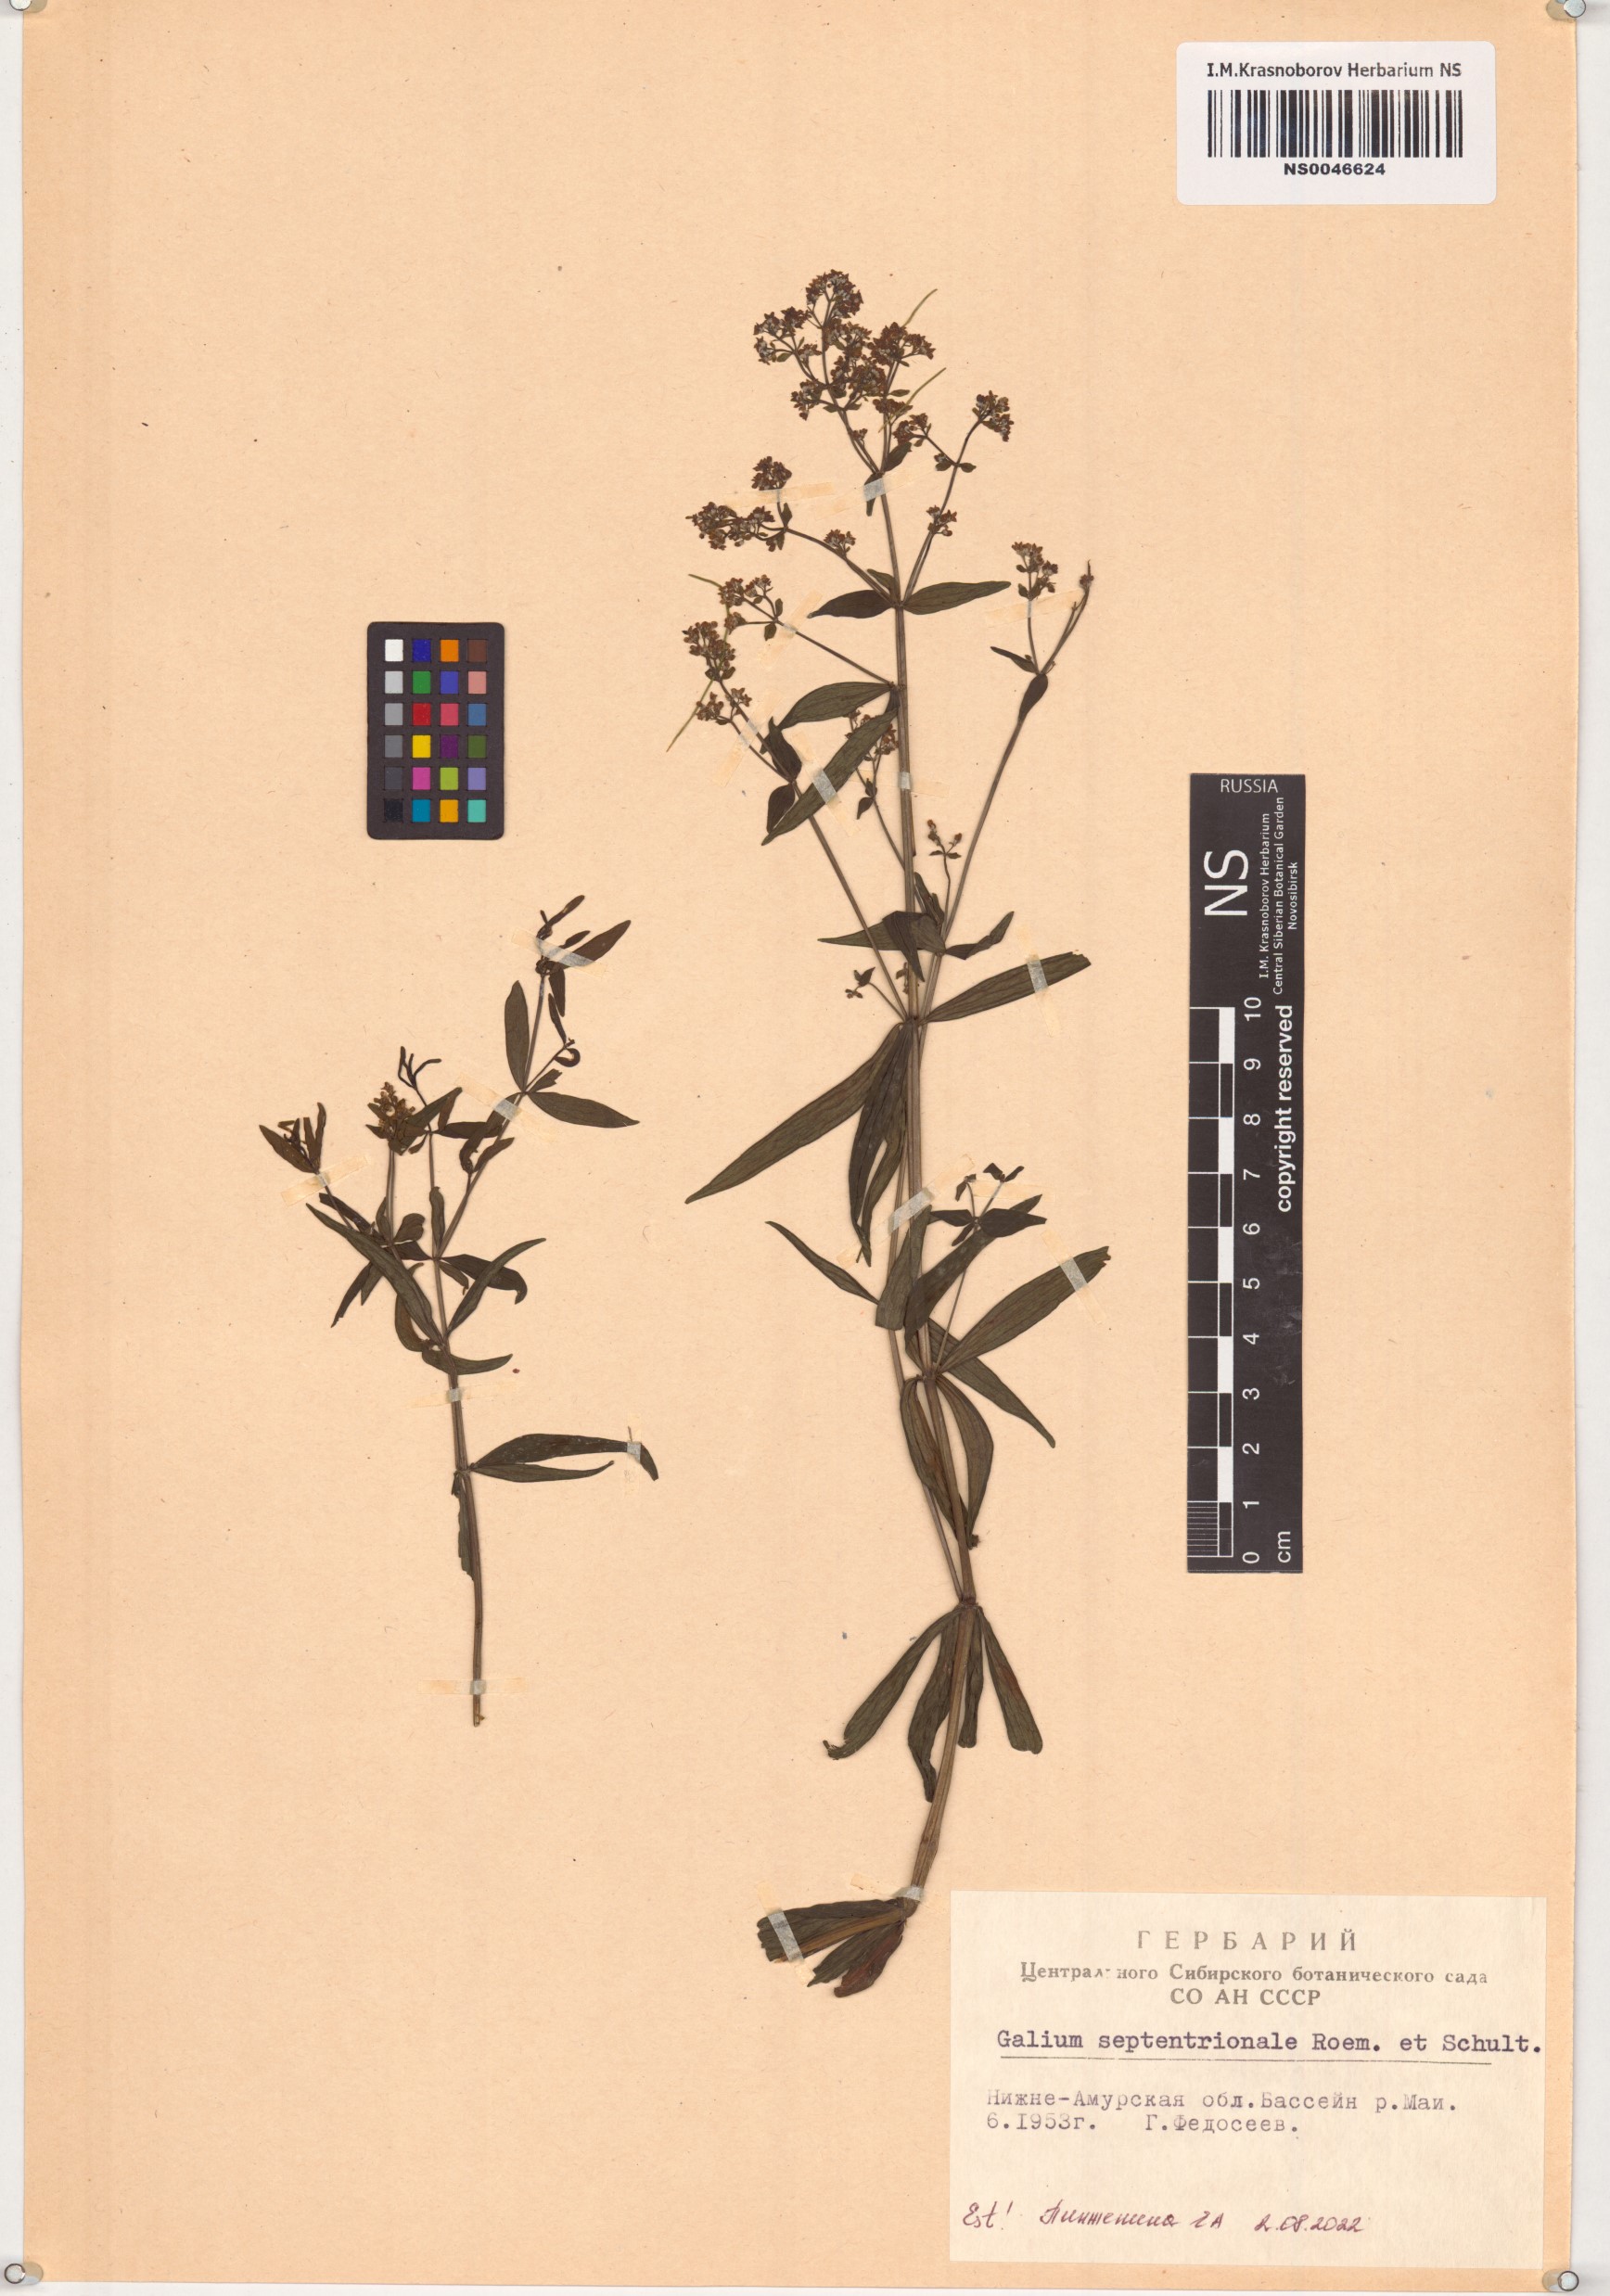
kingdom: Plantae
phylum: Tracheophyta
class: Magnoliopsida
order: Gentianales
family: Rubiaceae
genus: Galium
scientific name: Galium boreale
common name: Northern bedstraw
